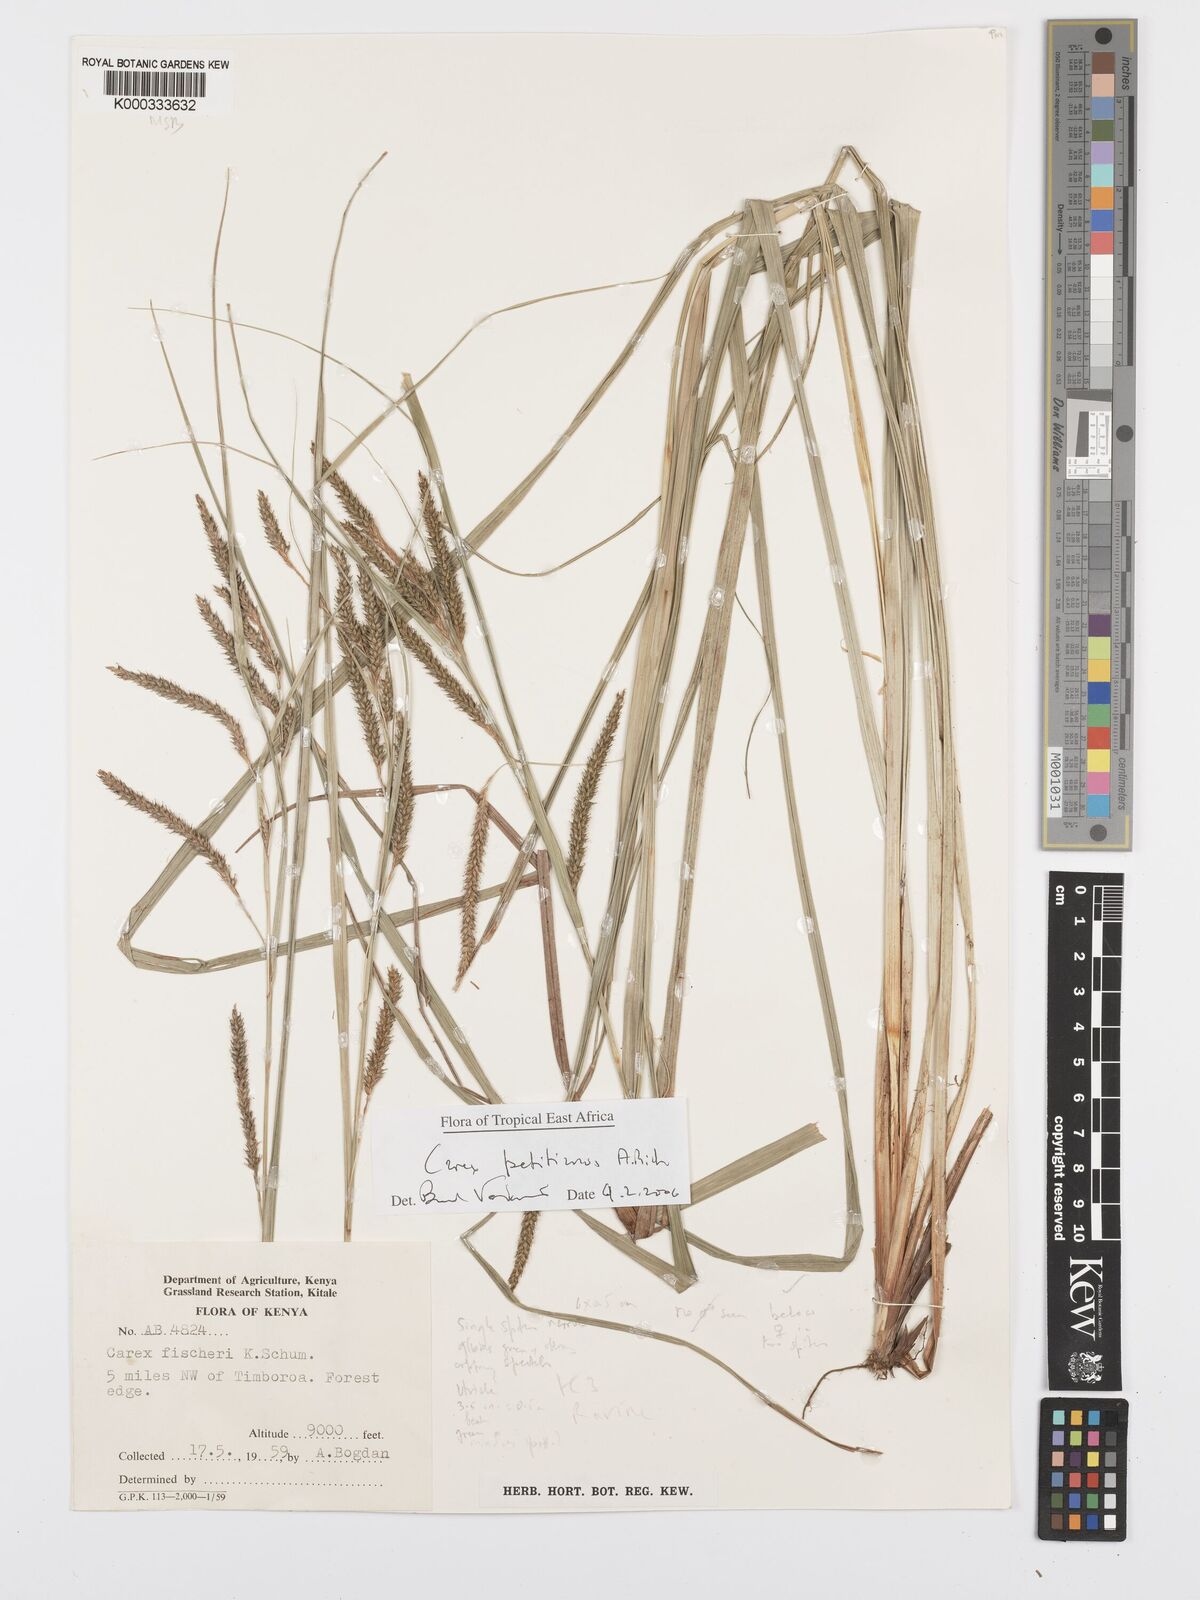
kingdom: Plantae
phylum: Tracheophyta
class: Liliopsida
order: Poales
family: Cyperaceae
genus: Carex
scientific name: Carex petitiana
